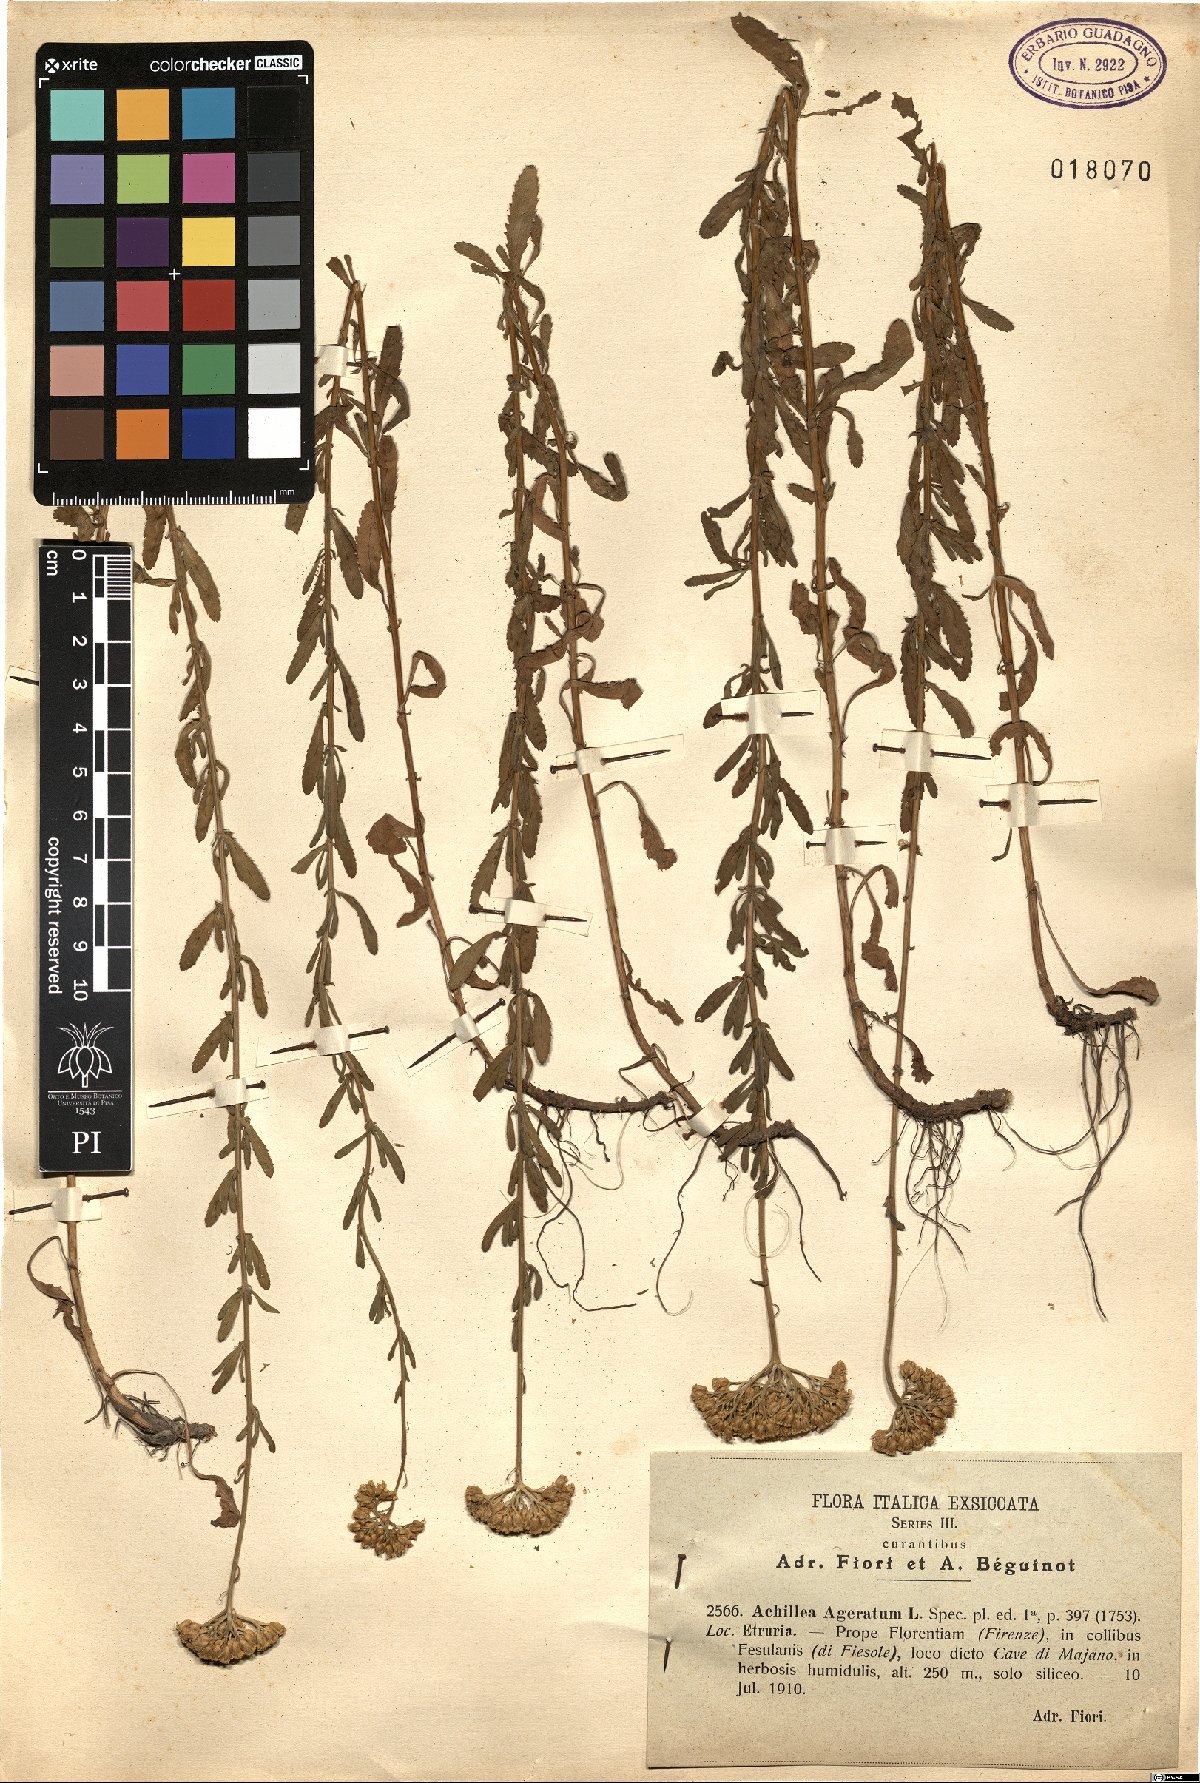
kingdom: Plantae
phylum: Tracheophyta
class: Magnoliopsida
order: Asterales
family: Asteraceae
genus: Achillea
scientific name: Achillea ageratum
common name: Sweet-nancy
